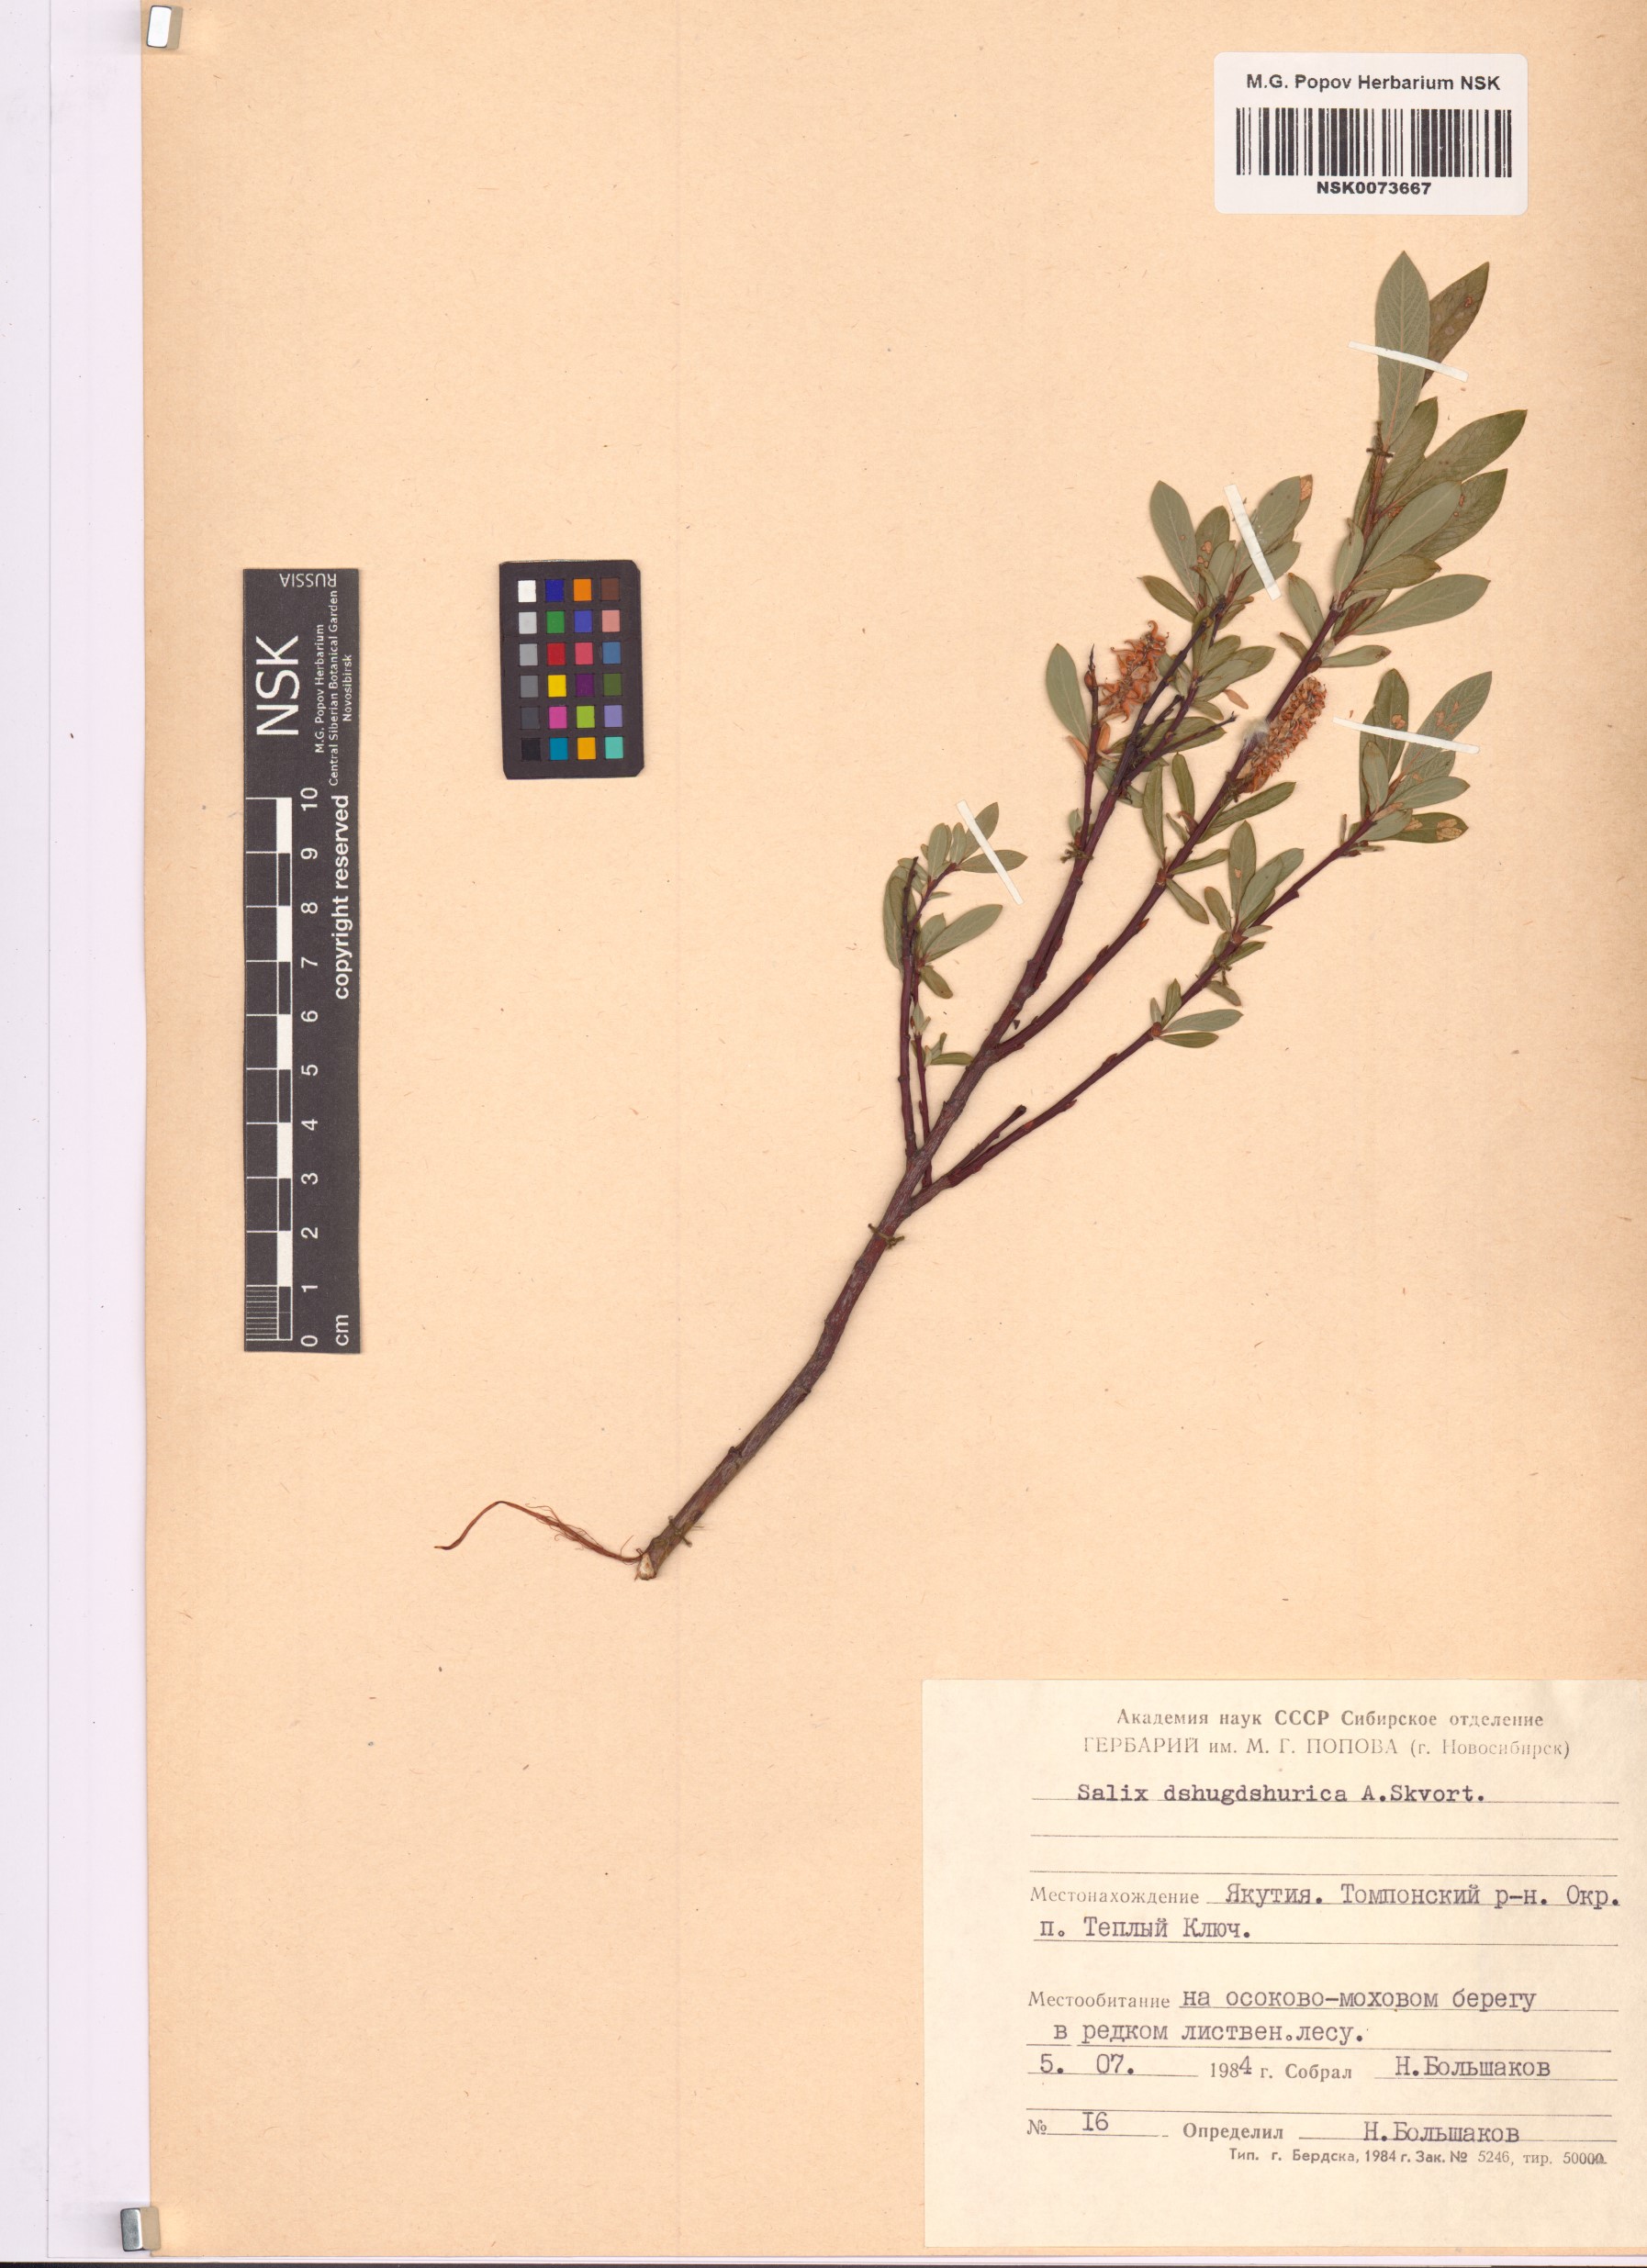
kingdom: Plantae
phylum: Tracheophyta
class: Magnoliopsida
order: Malpighiales
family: Salicaceae
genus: Salix
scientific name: Salix dshugdshurica
